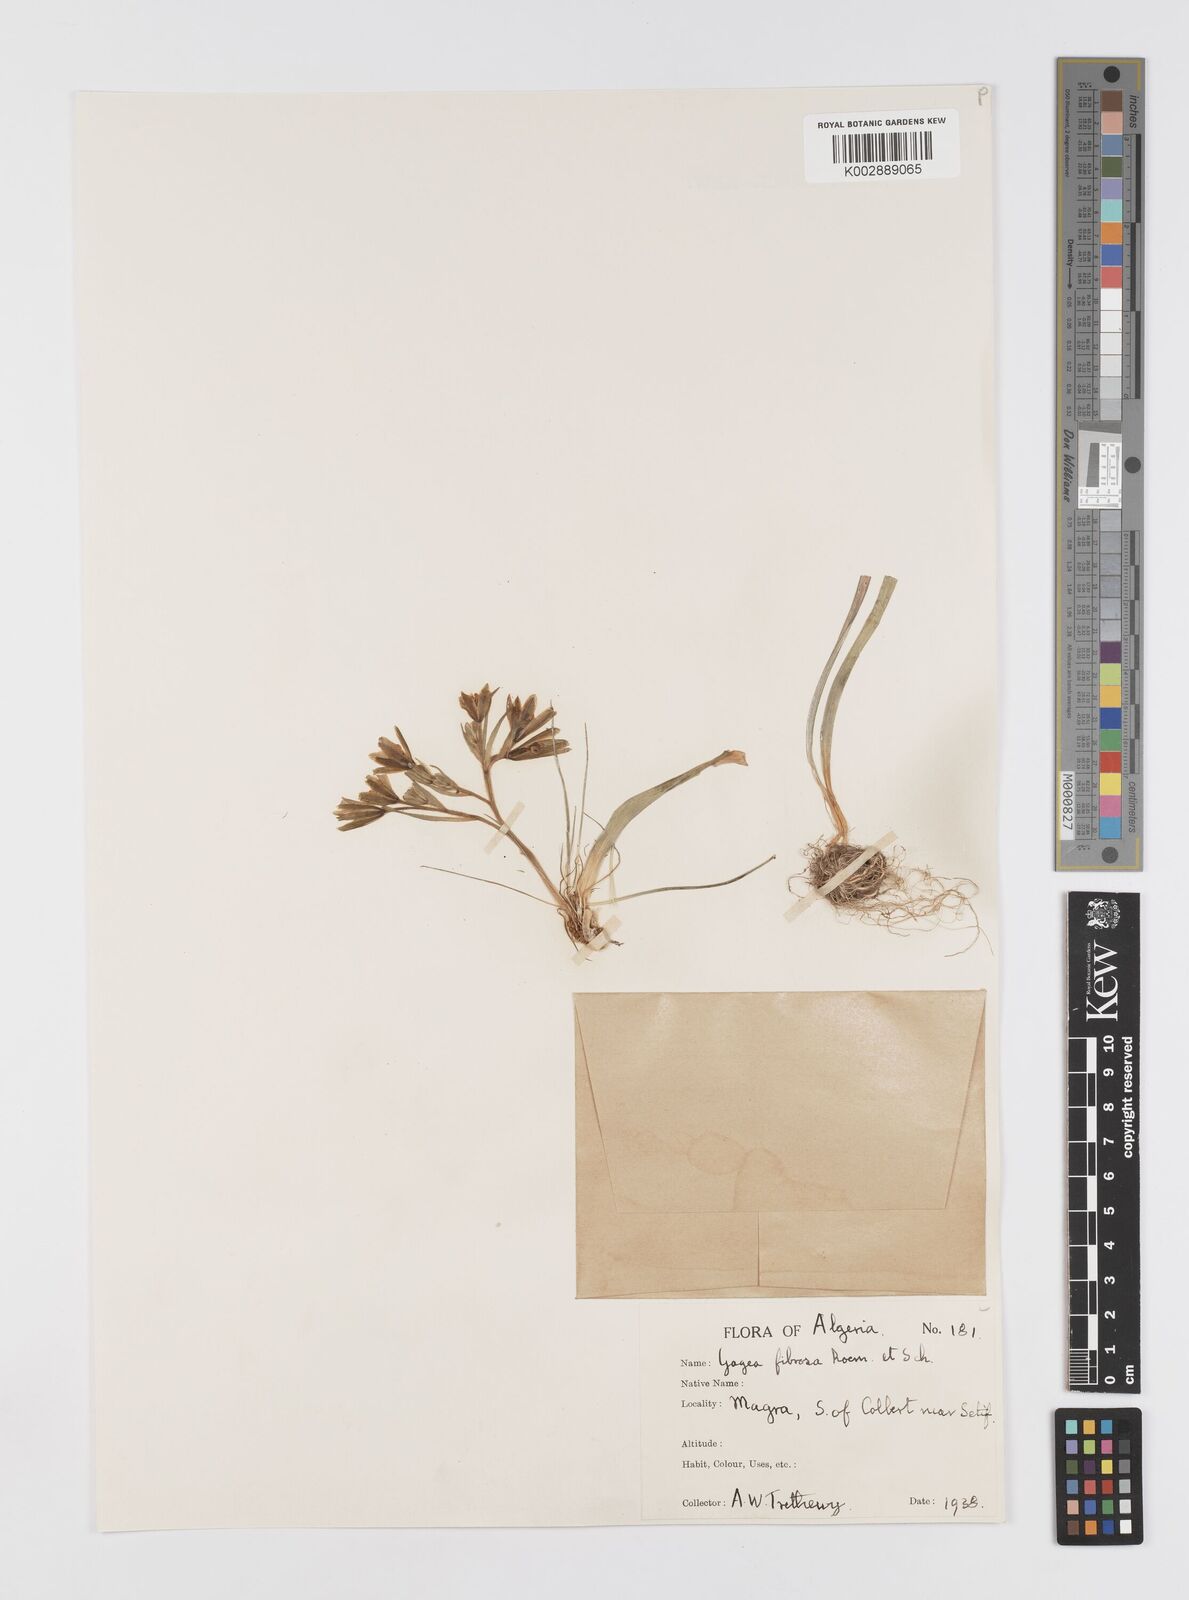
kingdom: Plantae
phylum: Tracheophyta
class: Liliopsida
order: Liliales
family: Liliaceae
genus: Gagea
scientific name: Gagea fibrosa
